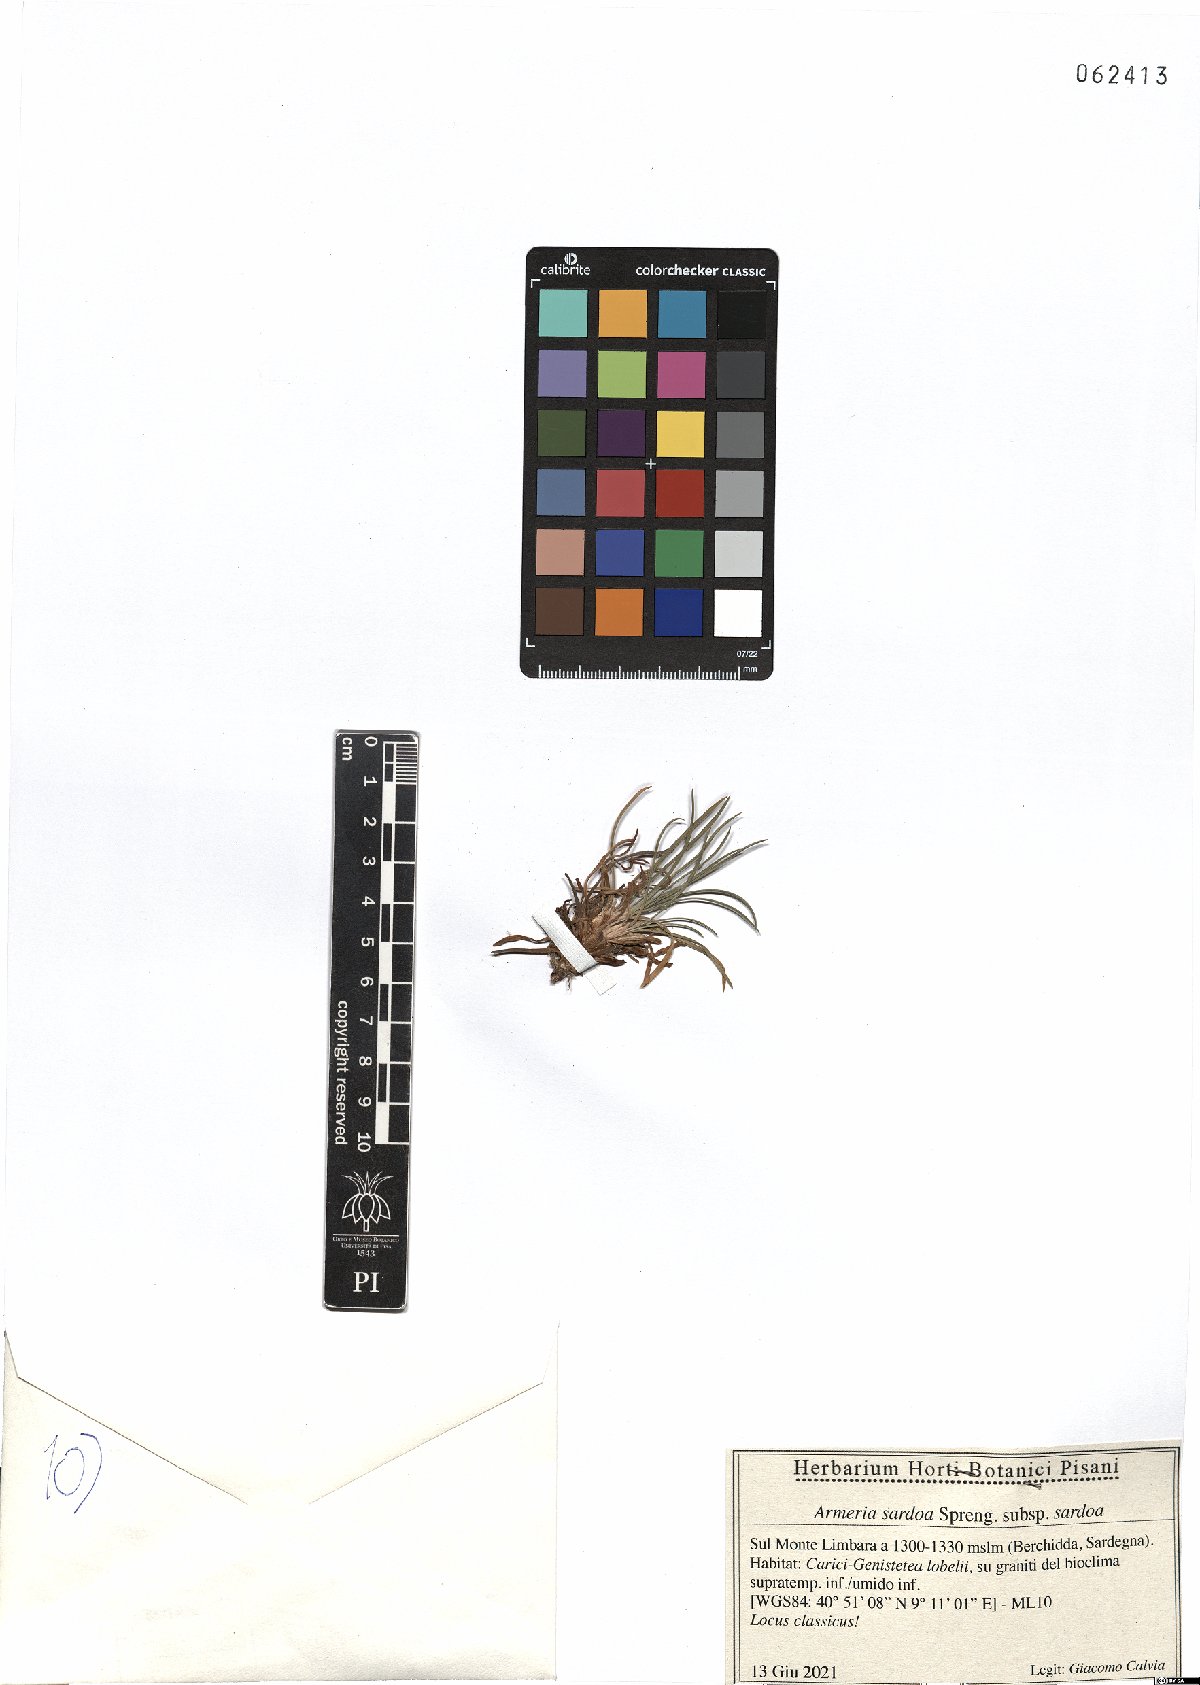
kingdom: Plantae
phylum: Tracheophyta
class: Magnoliopsida
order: Caryophyllales
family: Plumbaginaceae
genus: Armeria
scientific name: Armeria sardoa
